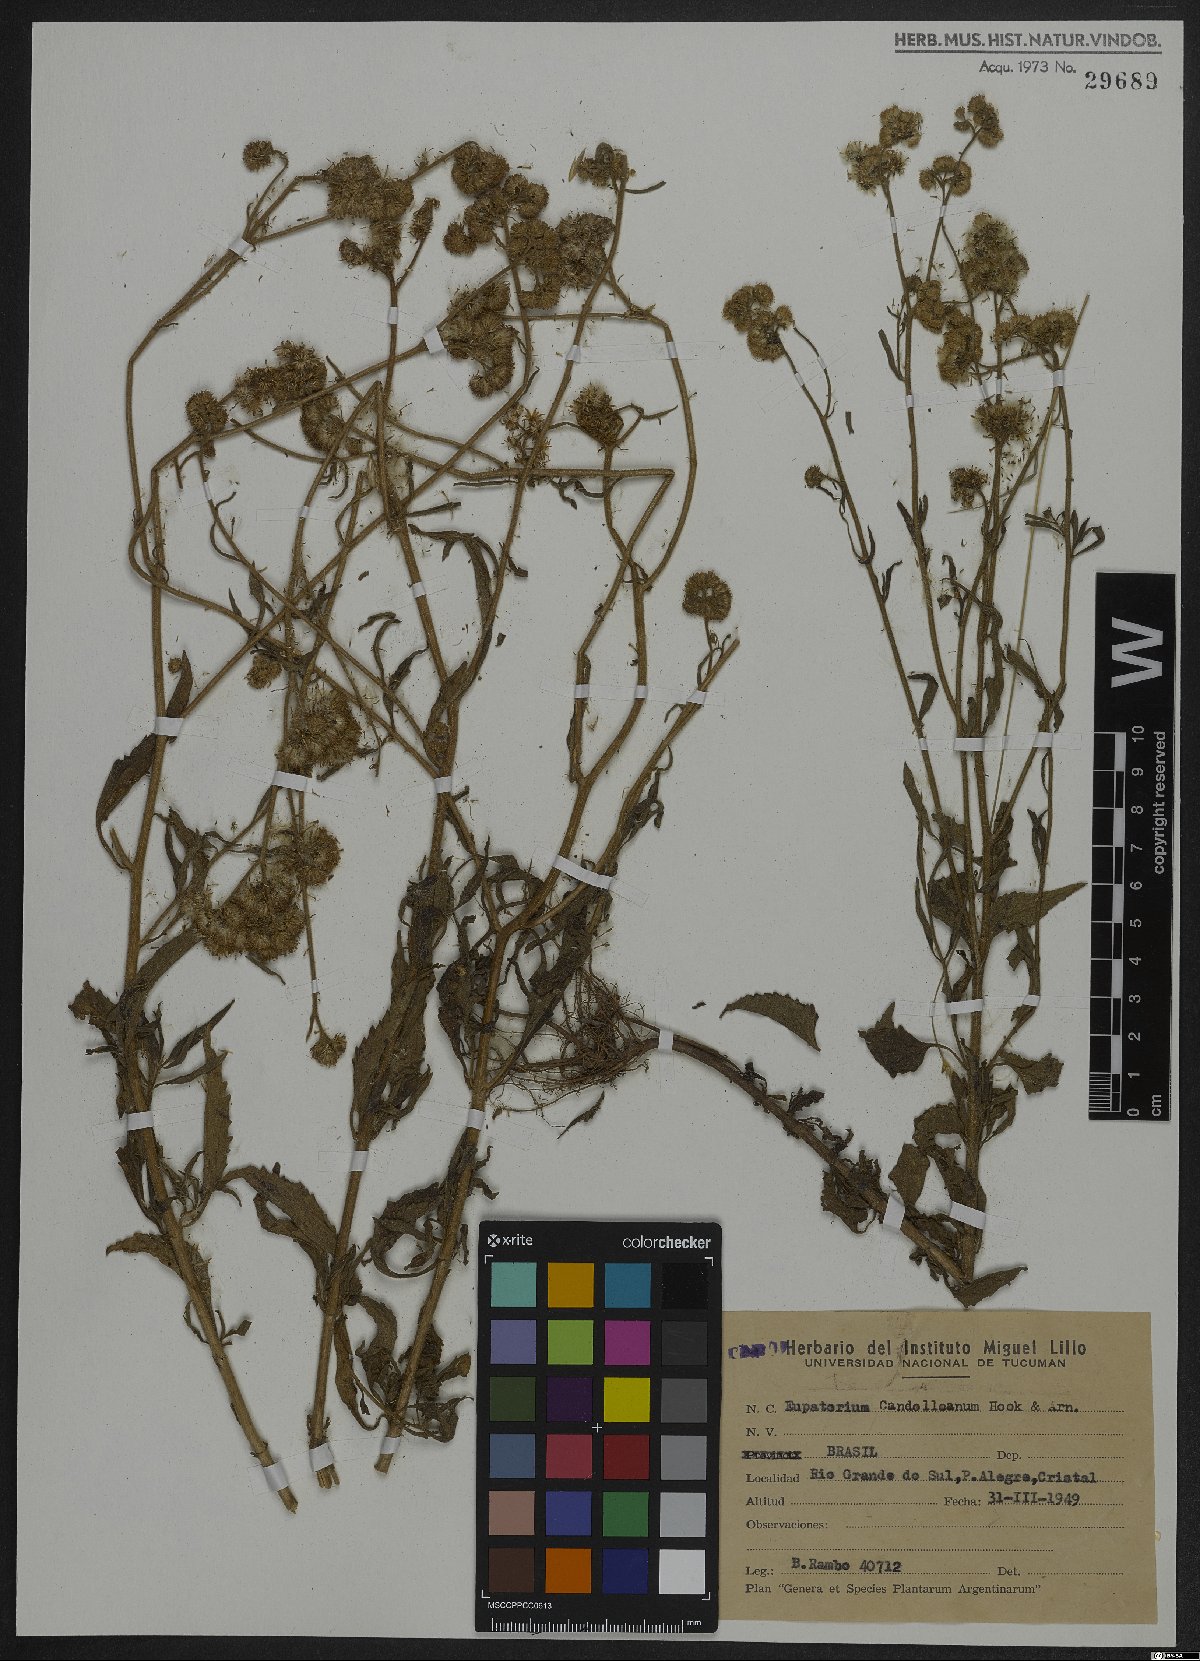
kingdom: Plantae
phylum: Tracheophyta
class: Magnoliopsida
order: Asterales
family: Asteraceae
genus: Barrosoa
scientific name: Barrosoa candolleana
